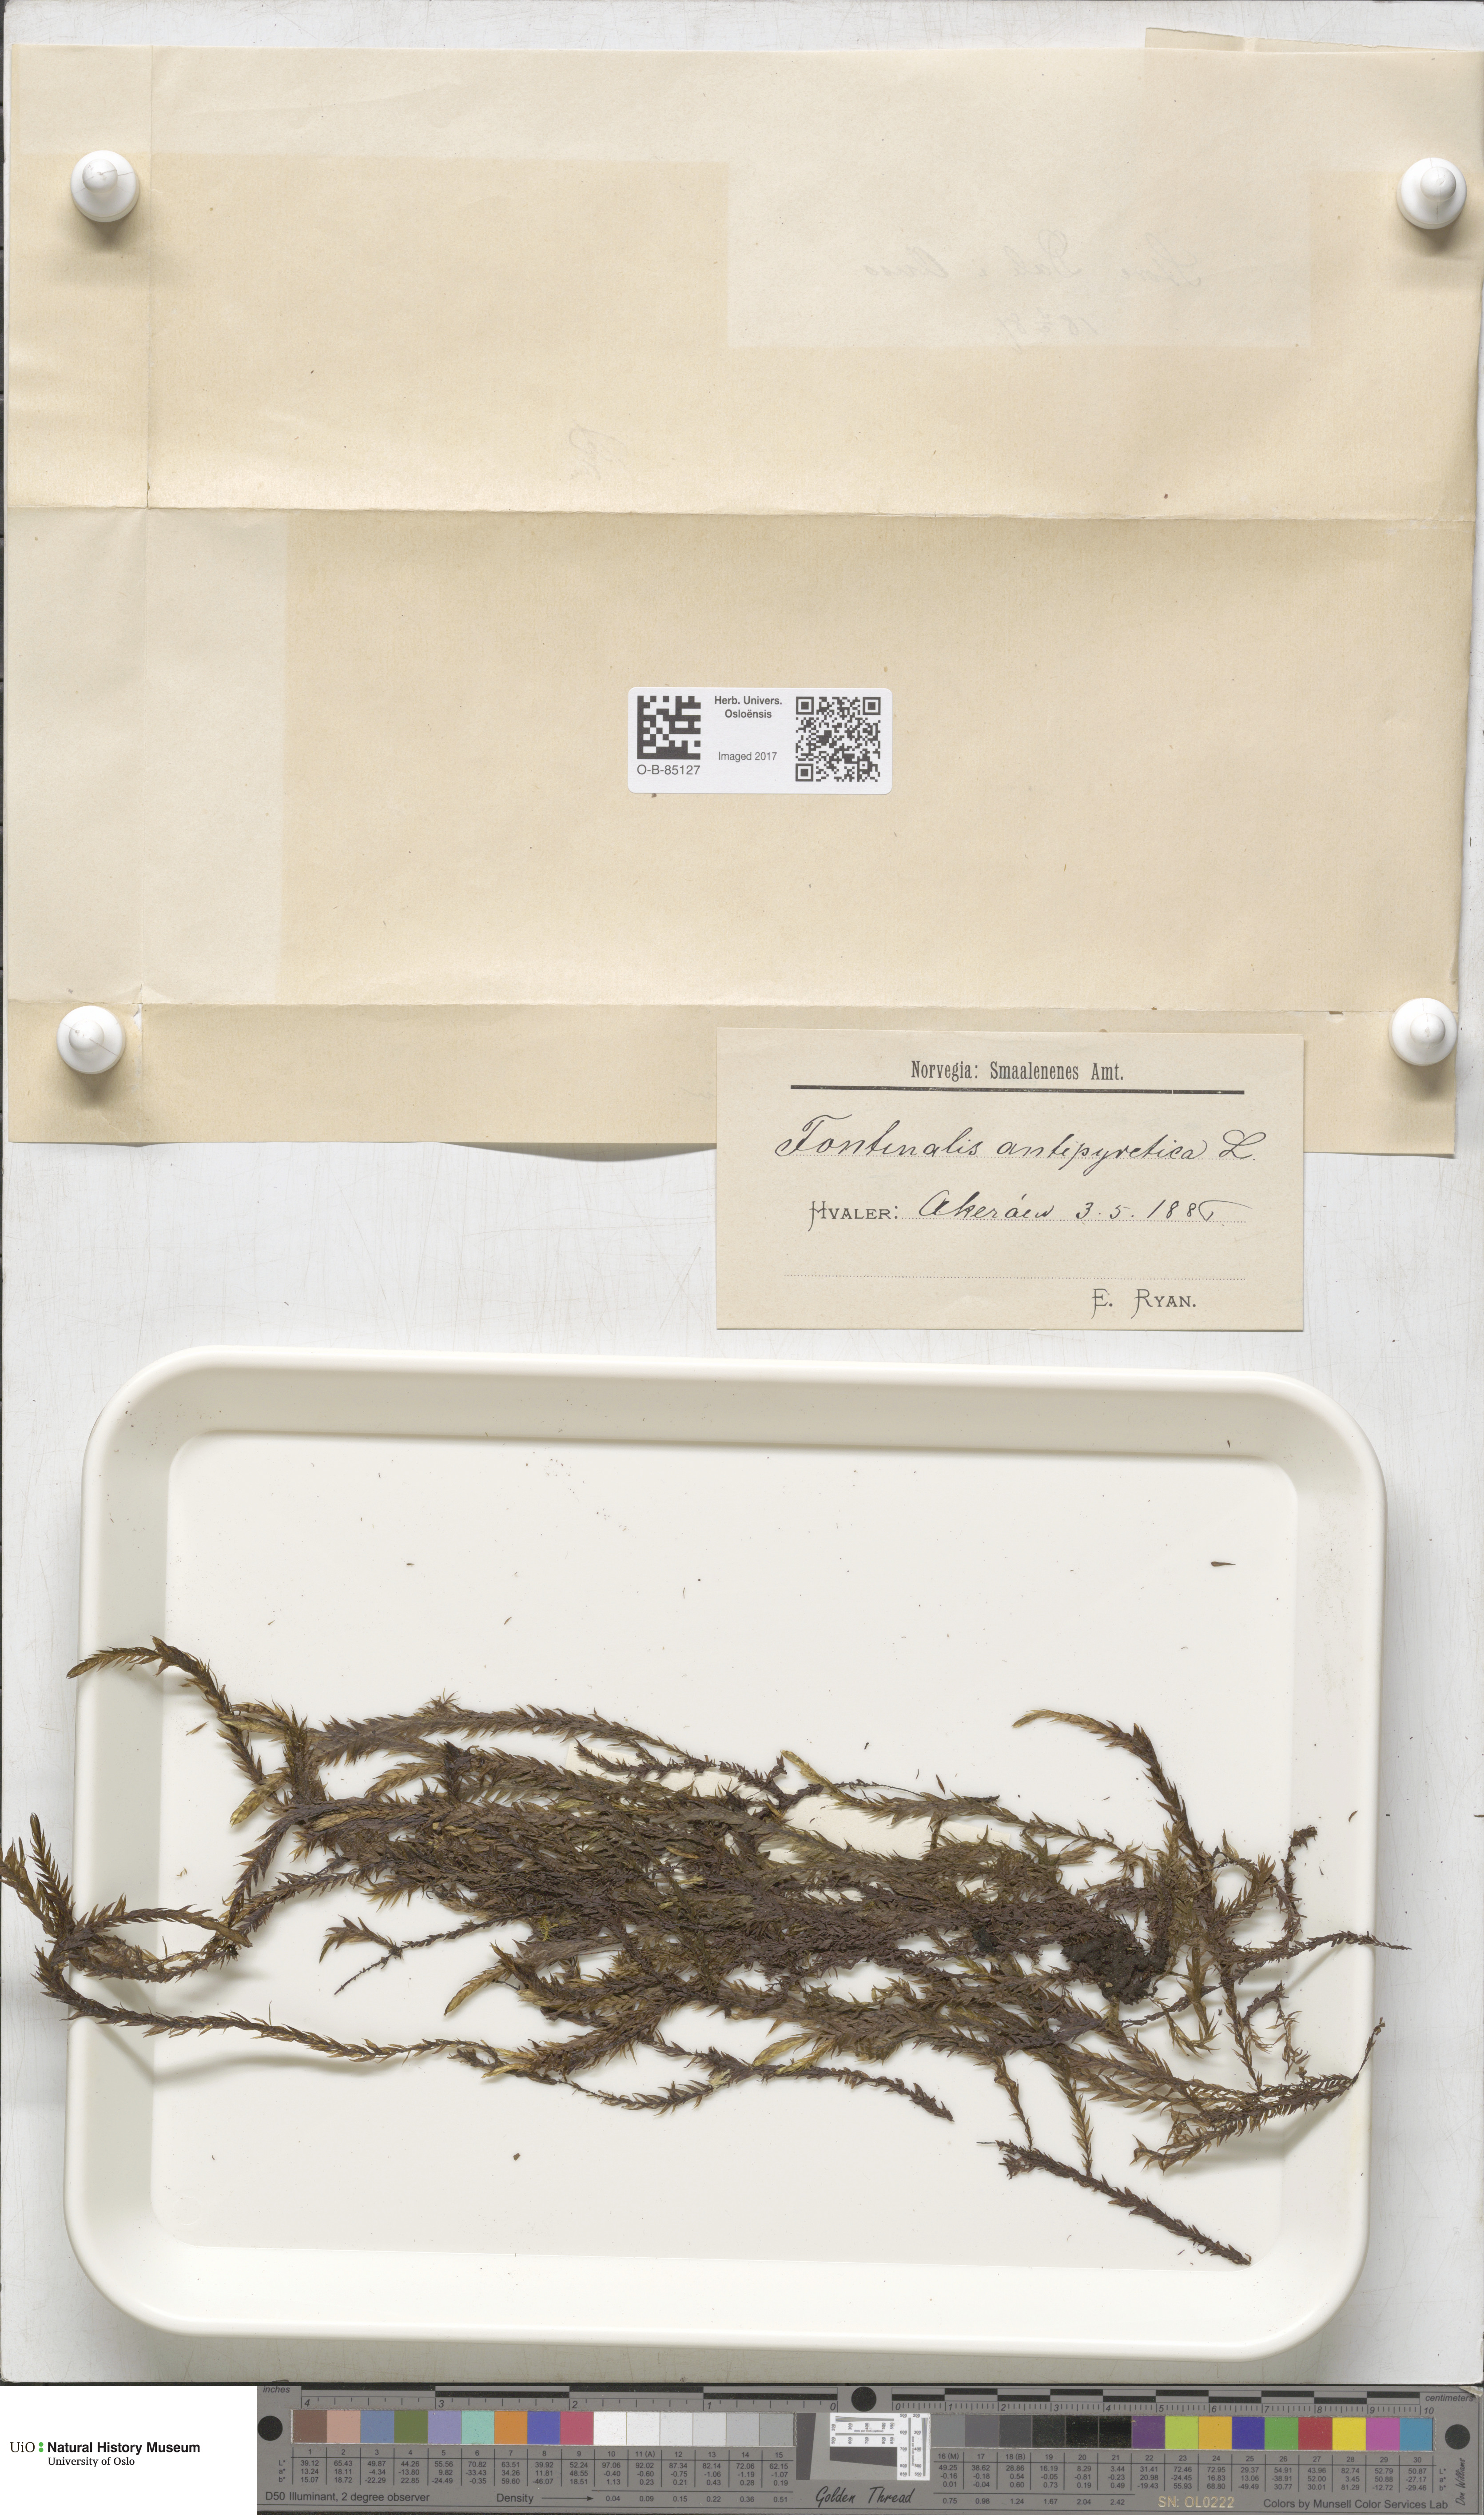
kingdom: Plantae
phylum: Bryophyta
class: Bryopsida
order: Hypnales
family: Fontinalaceae
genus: Fontinalis
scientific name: Fontinalis antipyretica
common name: Greater water-moss
